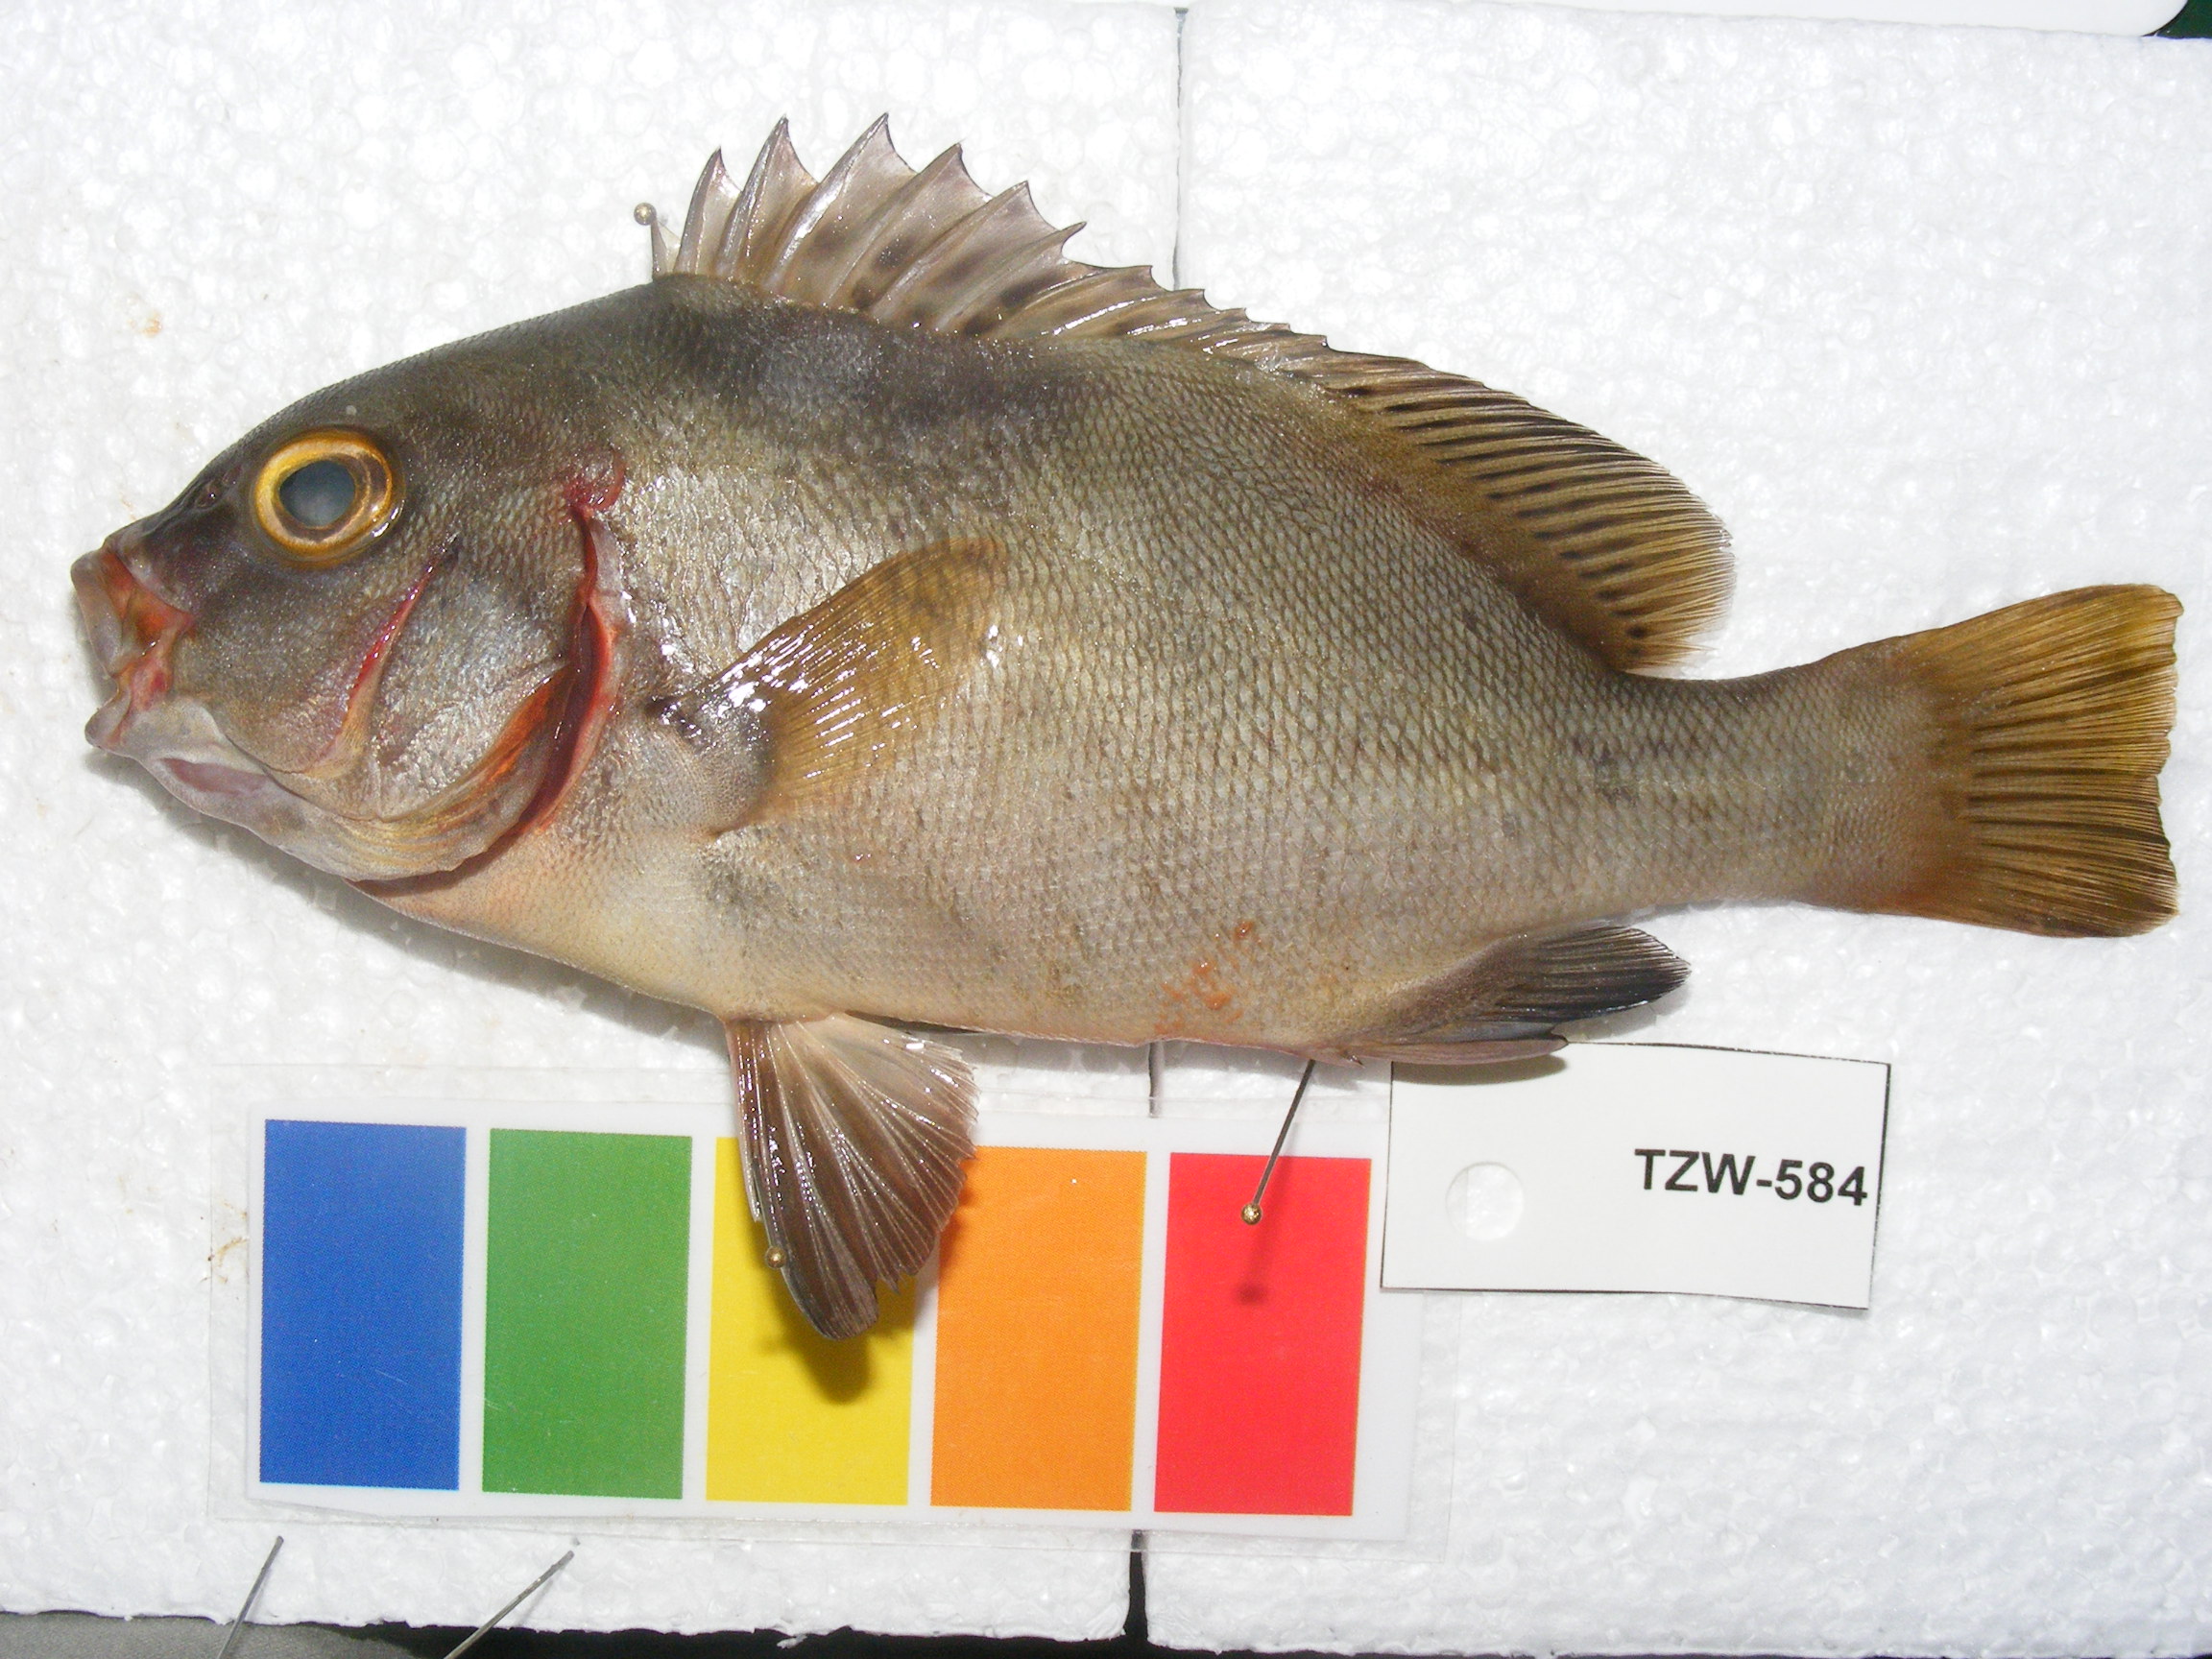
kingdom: Animalia
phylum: Chordata
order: Perciformes
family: Haemulidae
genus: Plectorhinchus
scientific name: Plectorhinchus schotaf
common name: Minstrel sweetlips
